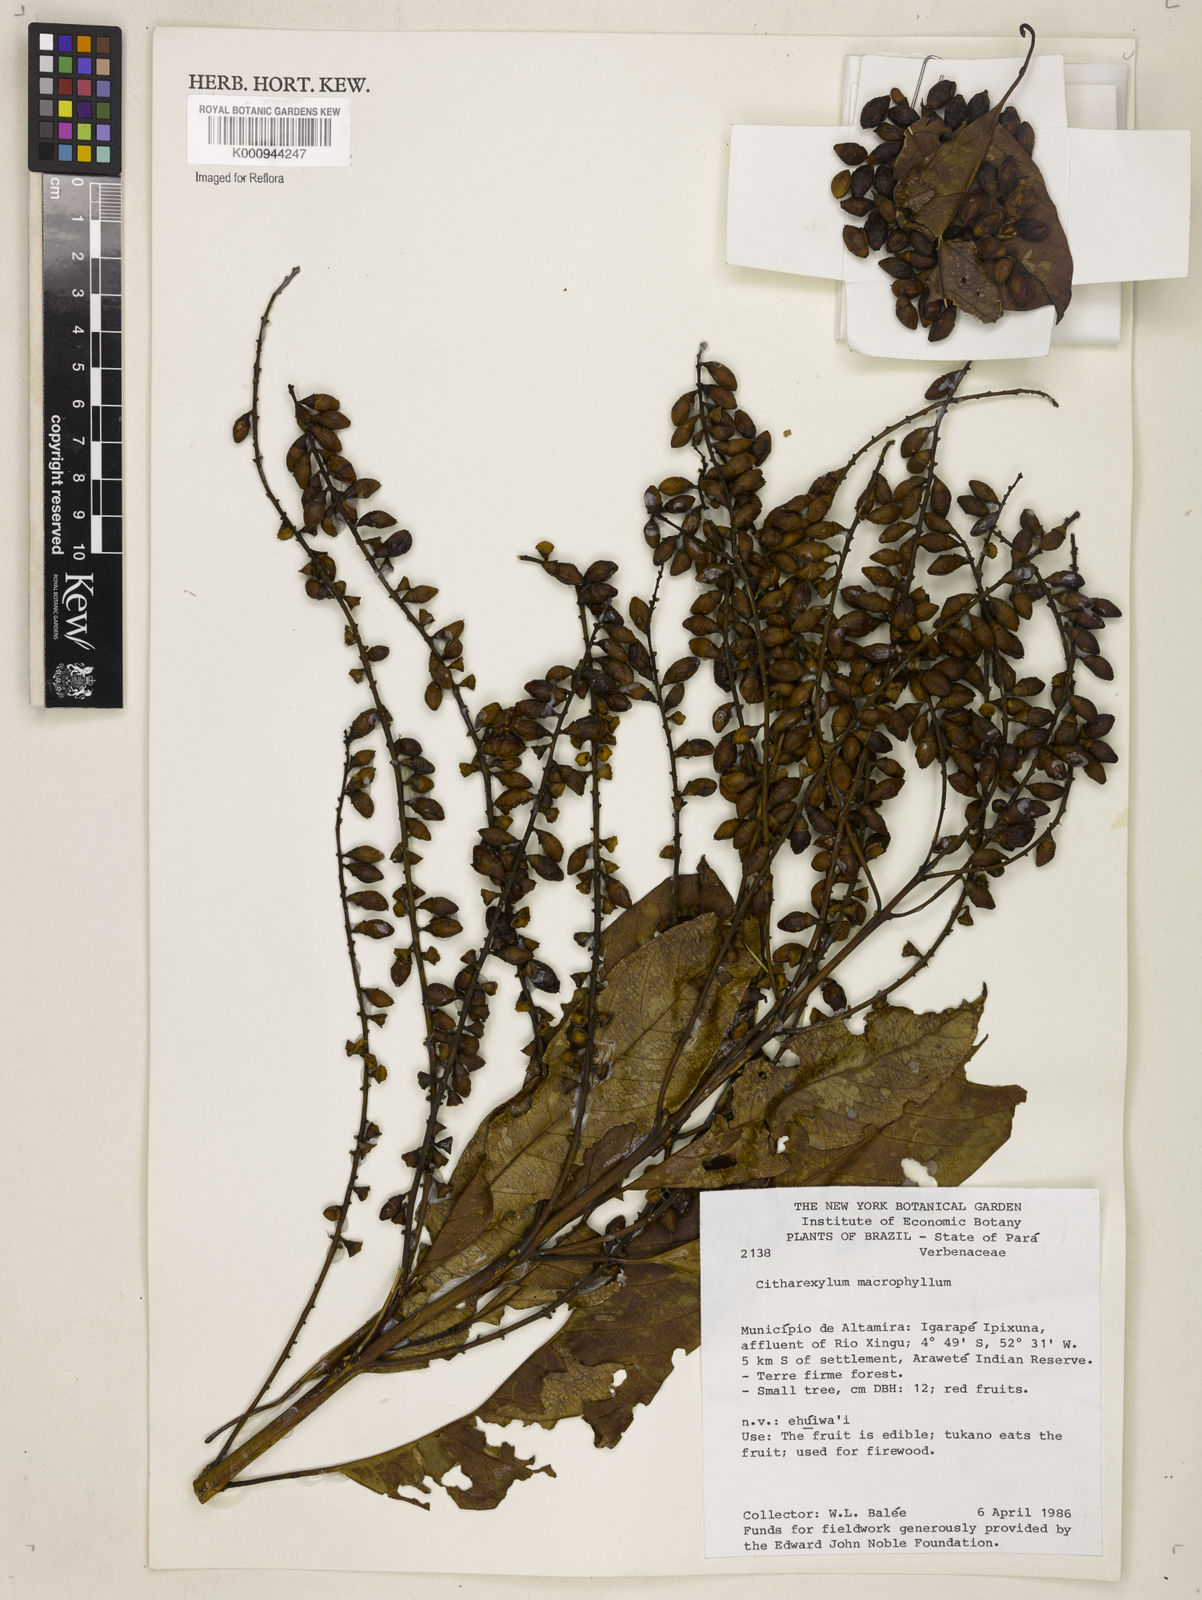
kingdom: Plantae
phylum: Tracheophyta
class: Magnoliopsida
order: Lamiales
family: Verbenaceae
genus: Citharexylum
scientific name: Citharexylum spinosum
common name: Fiddlewood
